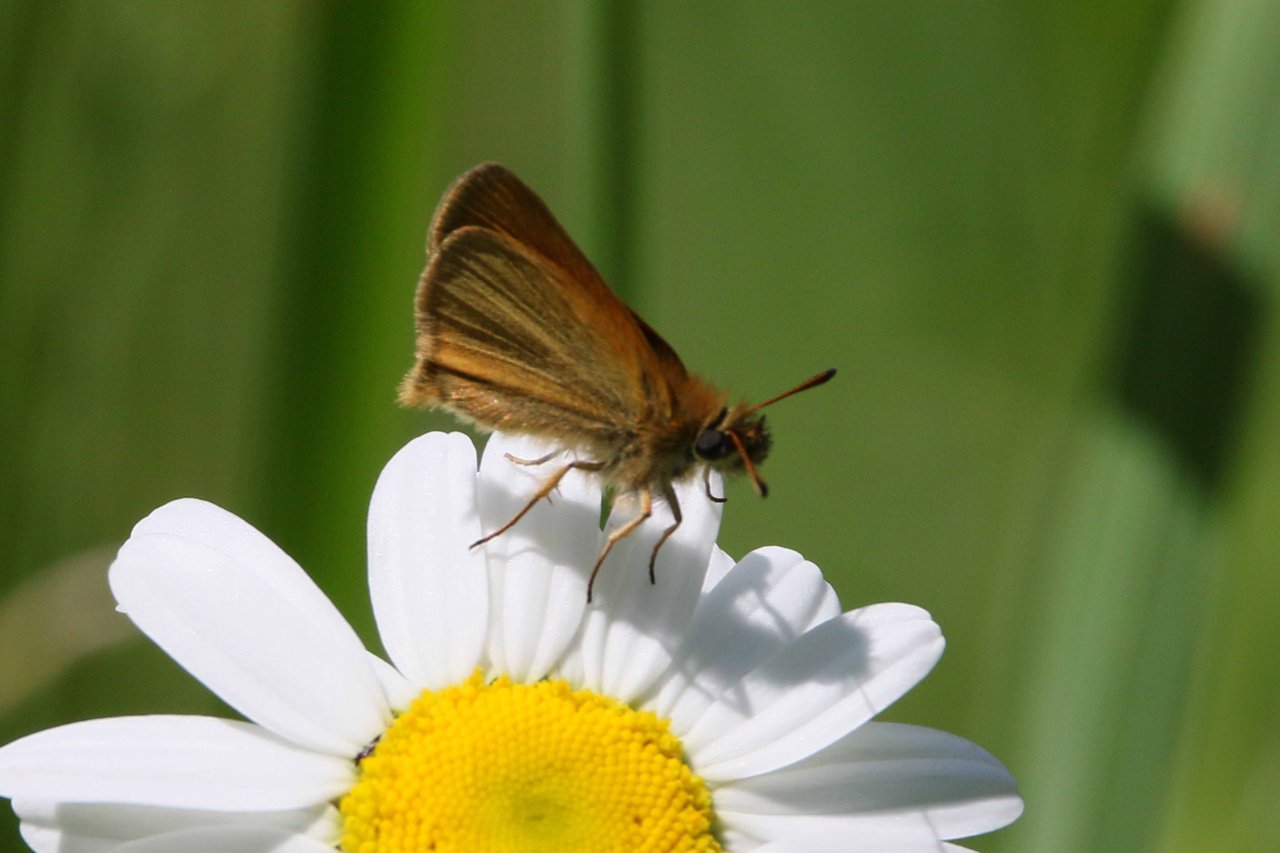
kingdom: Animalia
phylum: Arthropoda
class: Insecta
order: Lepidoptera
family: Hesperiidae
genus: Thymelicus
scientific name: Thymelicus lineola
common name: European Skipper
